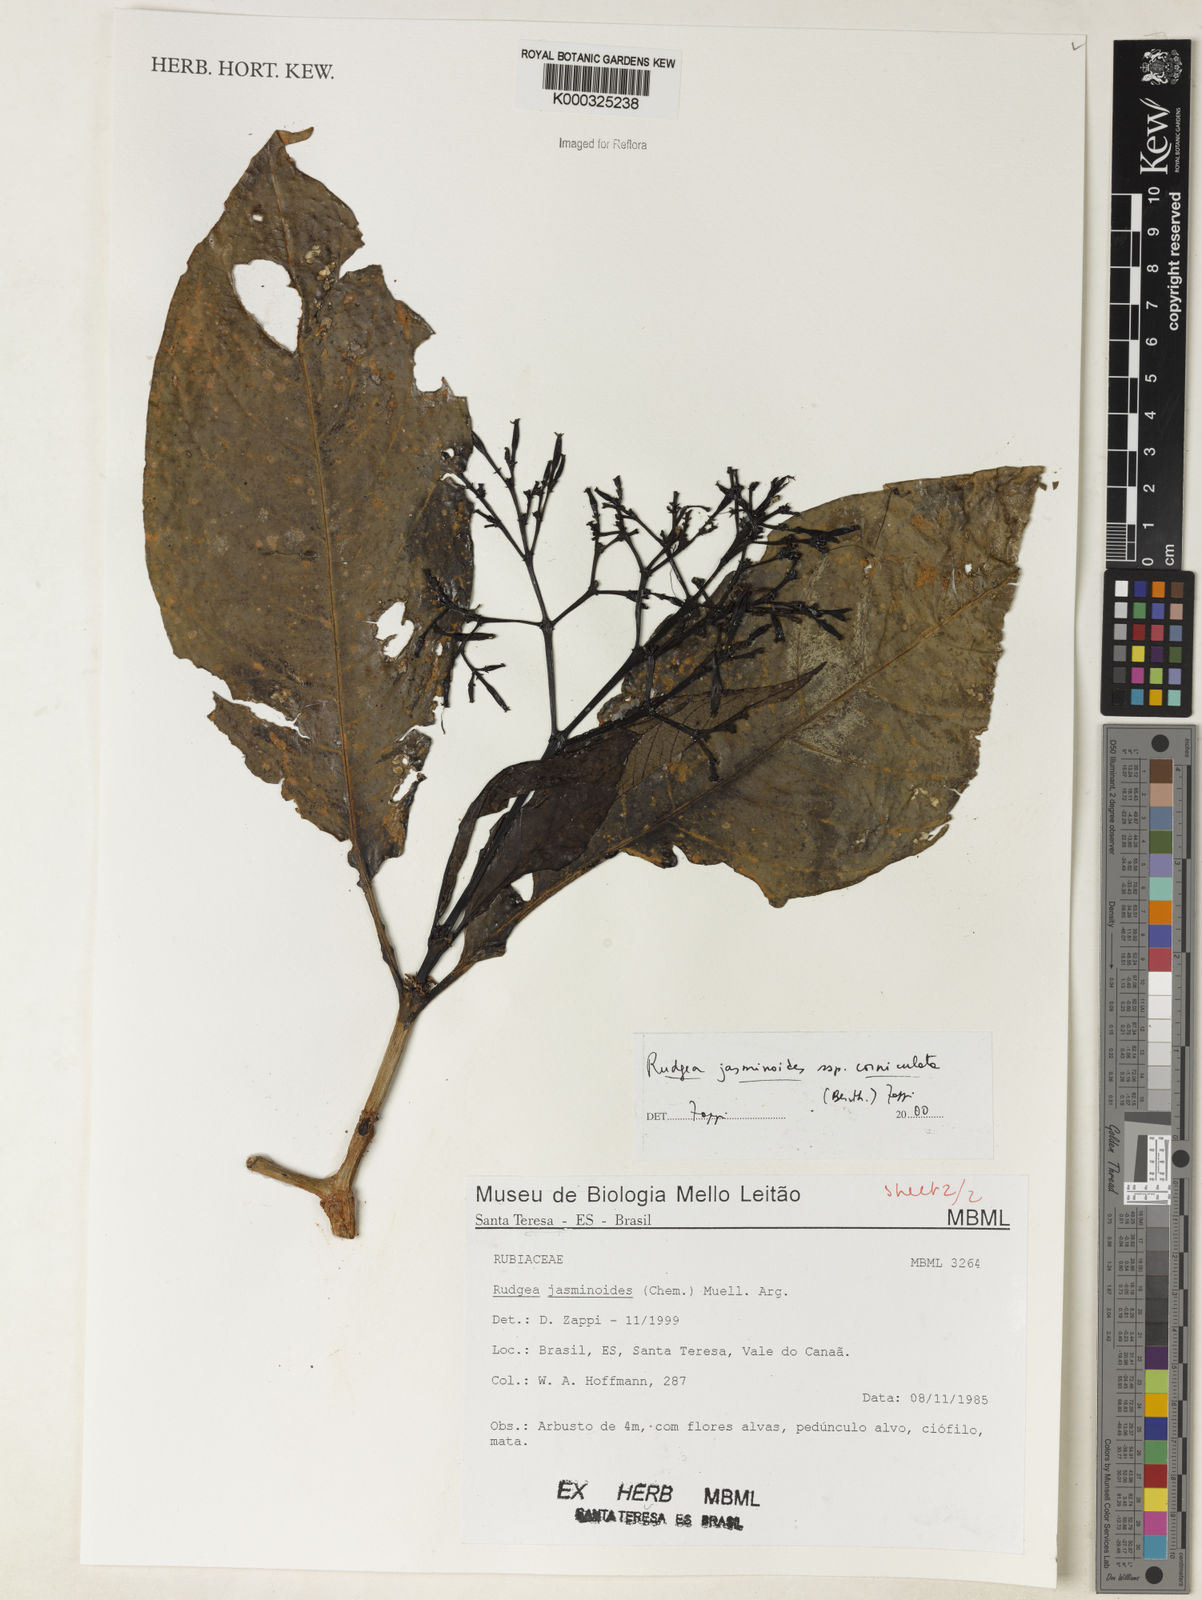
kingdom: Plantae
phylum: Tracheophyta
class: Magnoliopsida
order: Gentianales
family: Rubiaceae
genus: Rudgea
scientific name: Rudgea jasminoides
